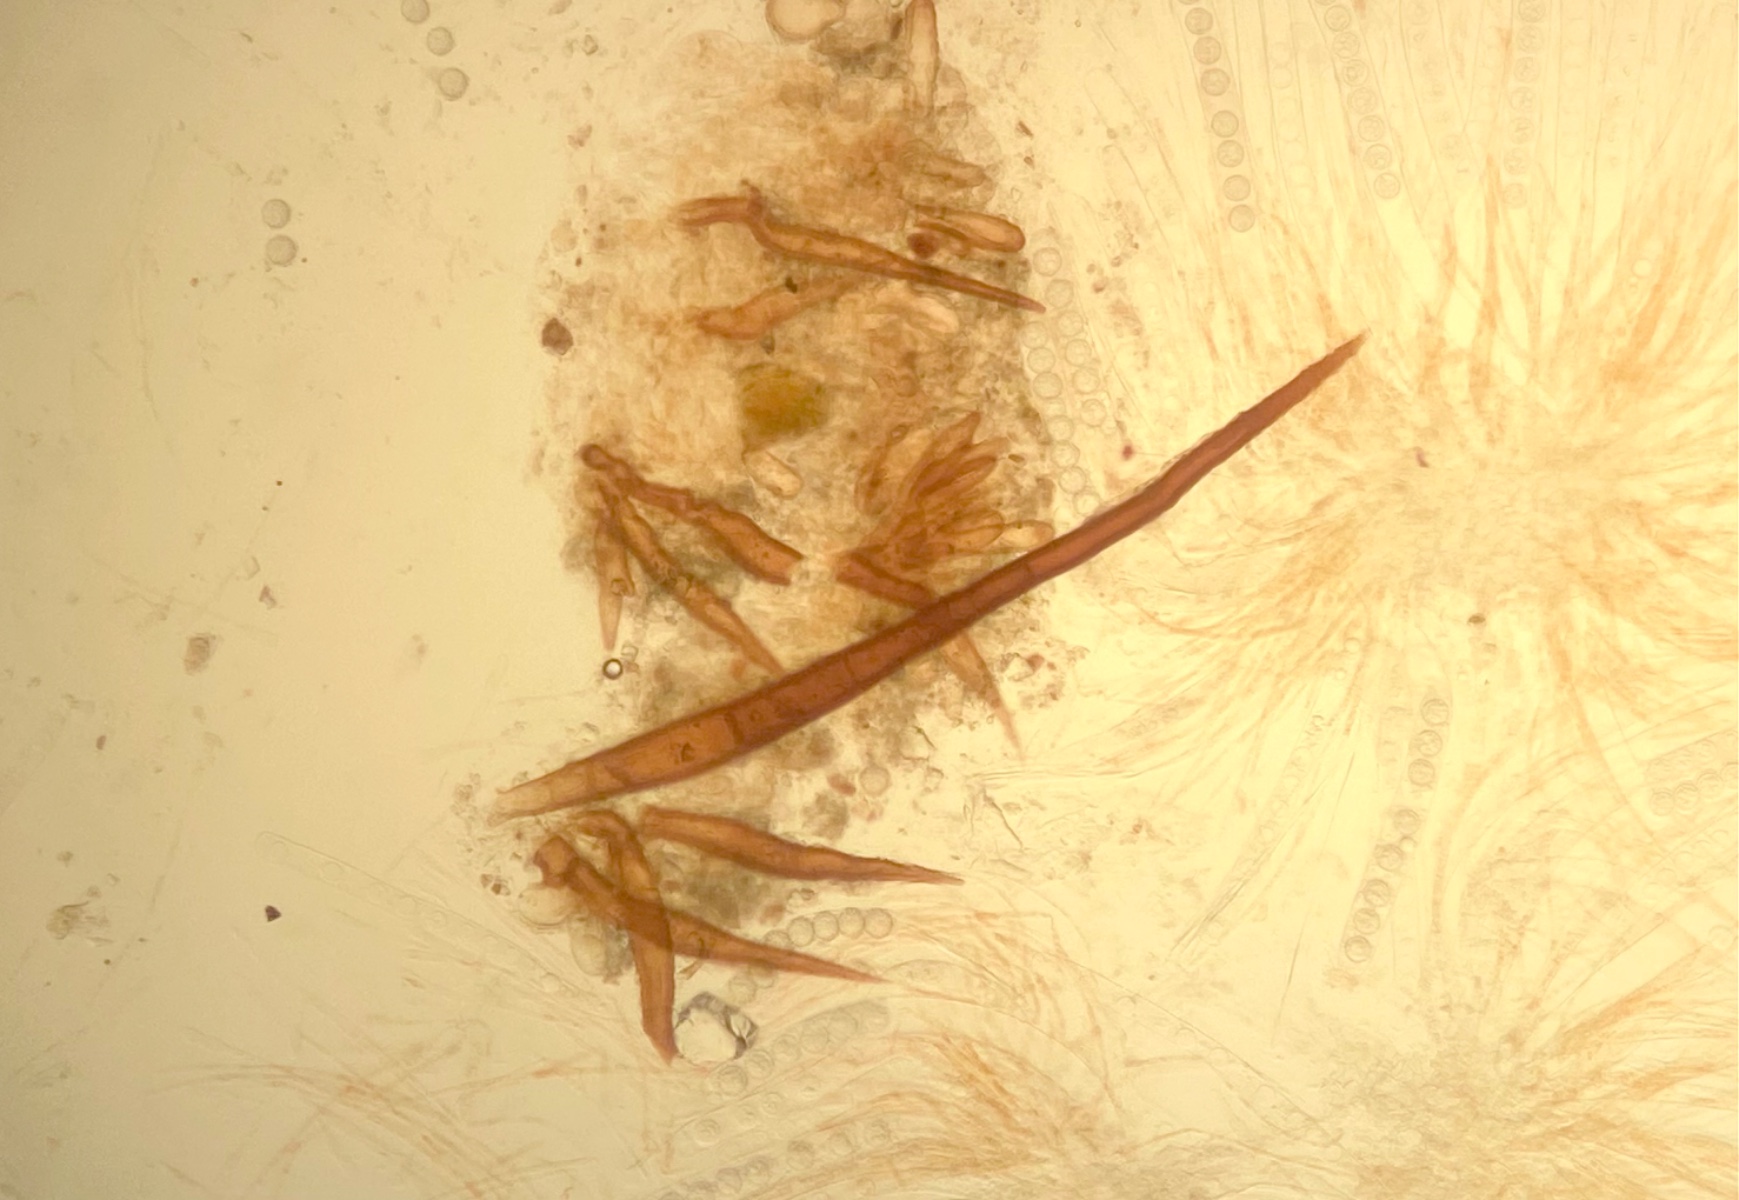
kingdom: Fungi
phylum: Ascomycota
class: Pezizomycetes
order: Pezizales
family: Pyronemataceae
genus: Scutellinia
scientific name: Scutellinia barlae
